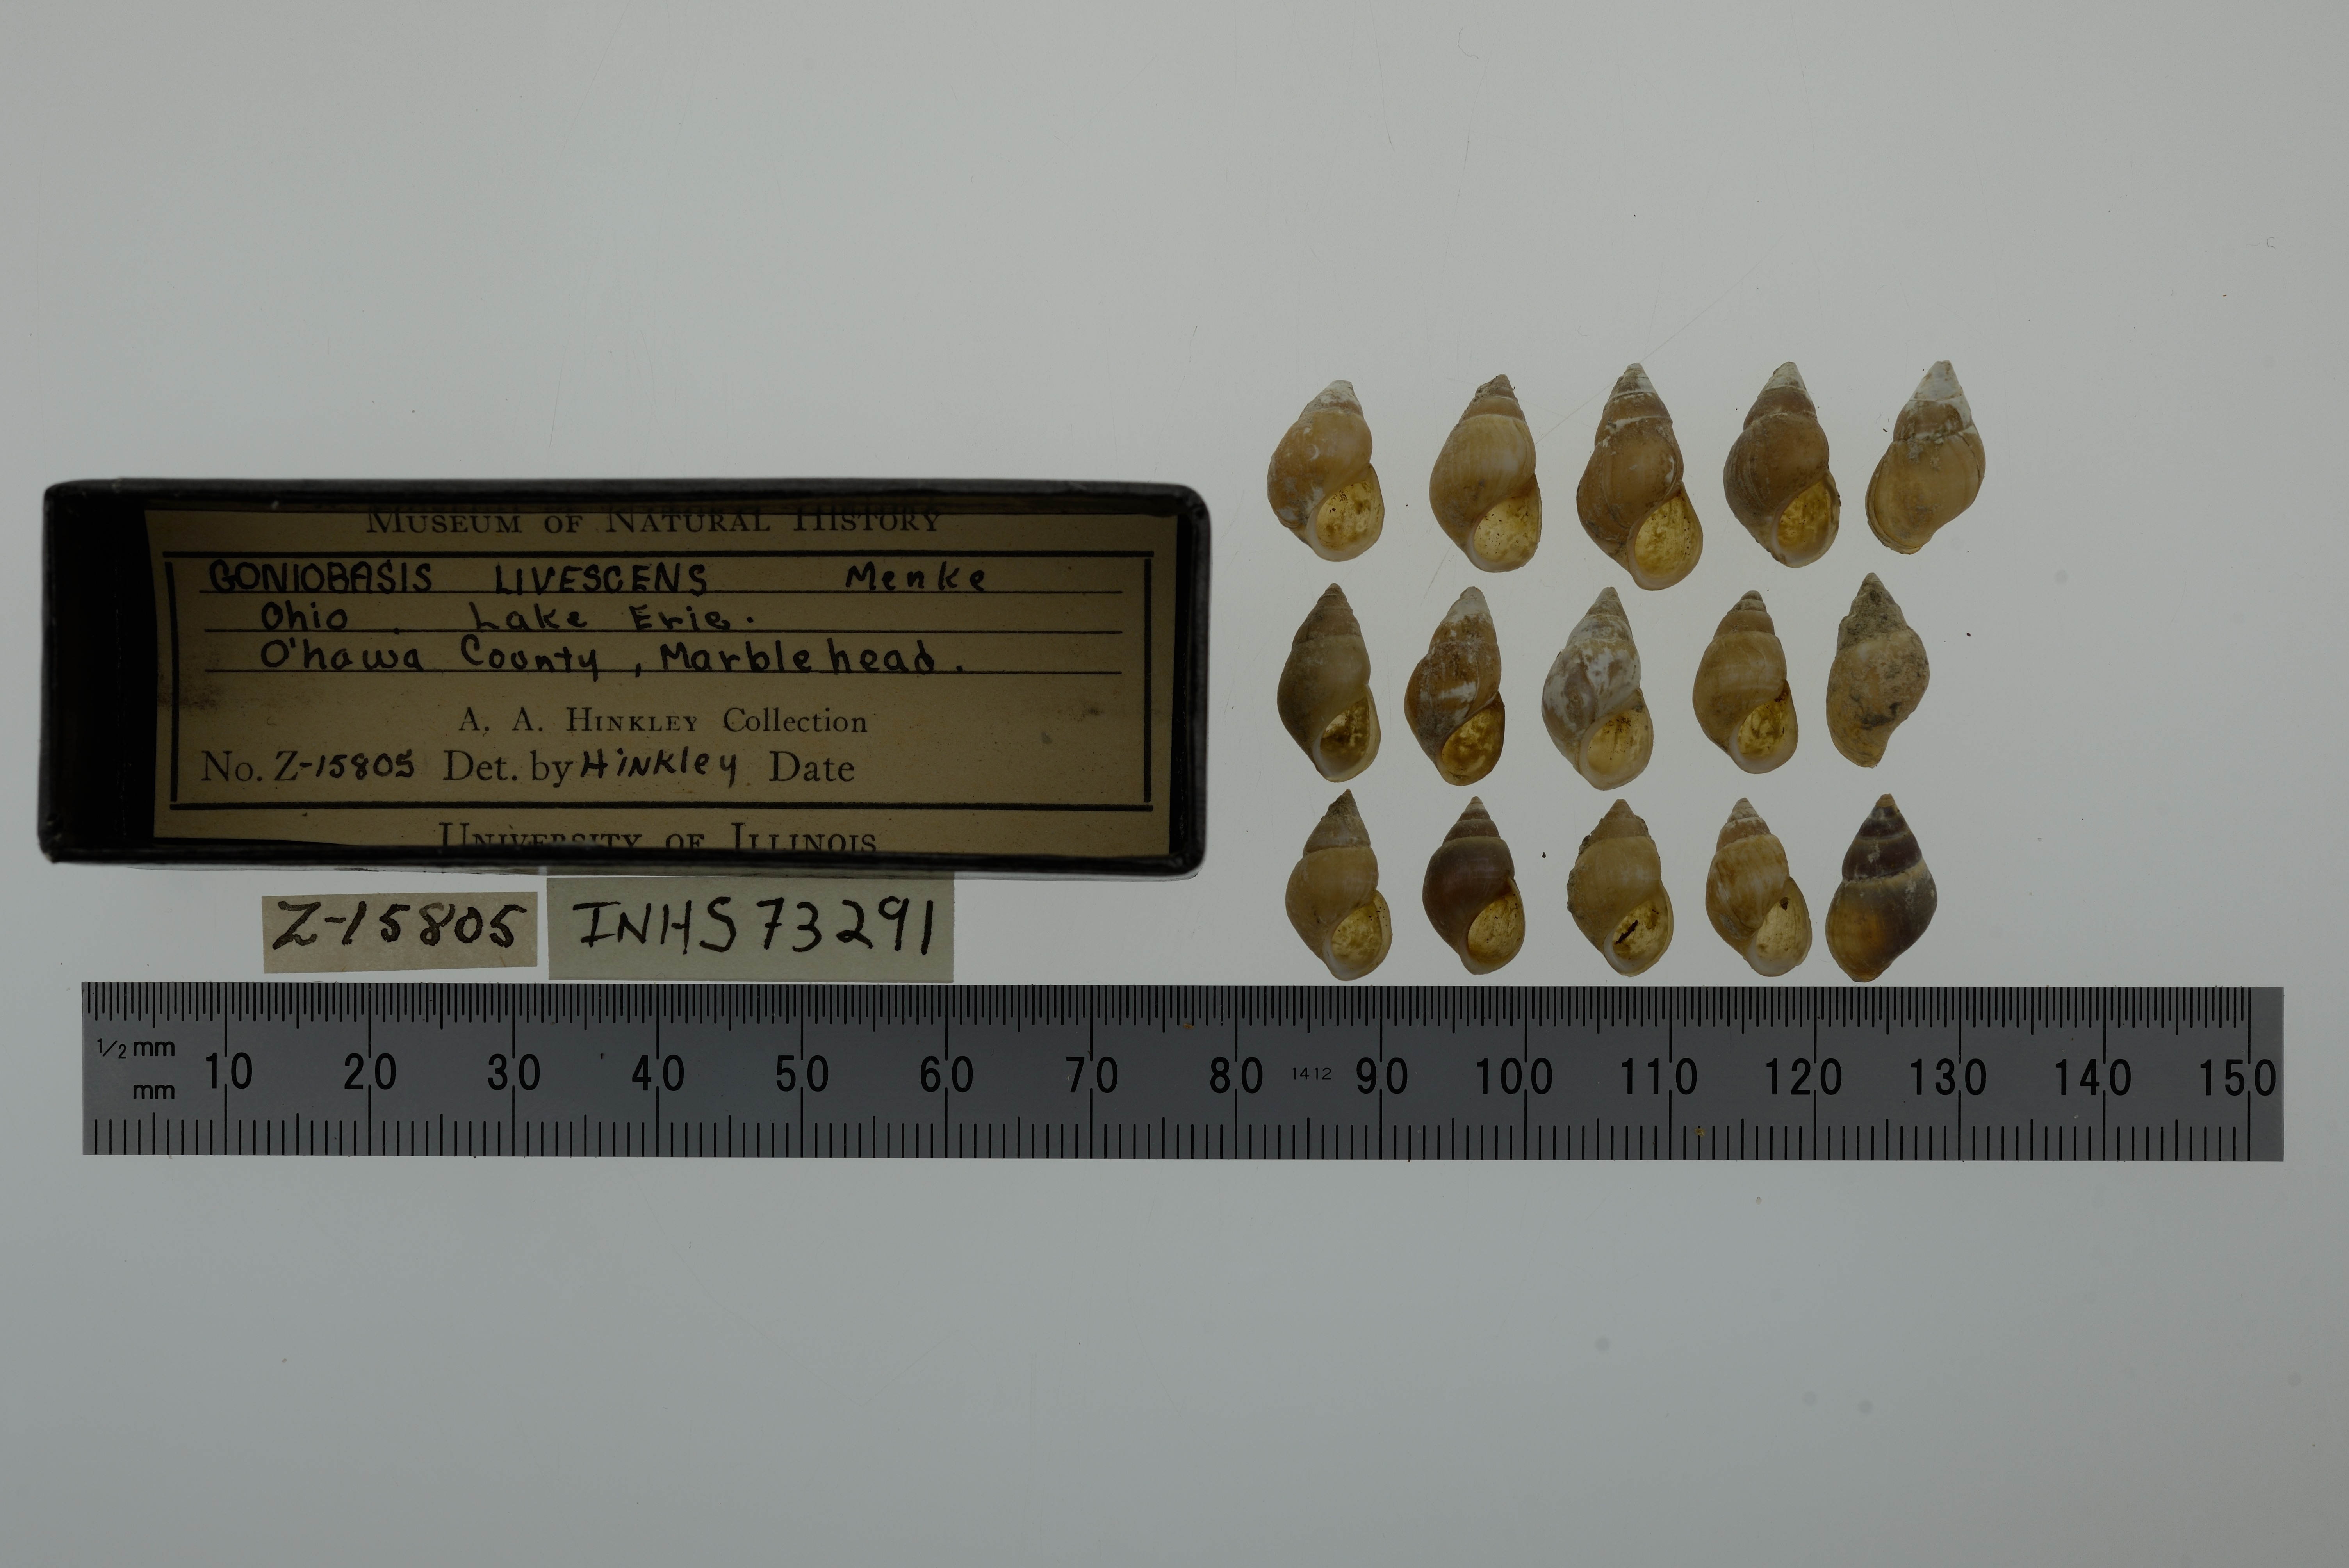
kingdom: Animalia
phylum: Mollusca
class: Gastropoda
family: Pleuroceridae
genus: Elimia
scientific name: Elimia livescens
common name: Liver elimia
